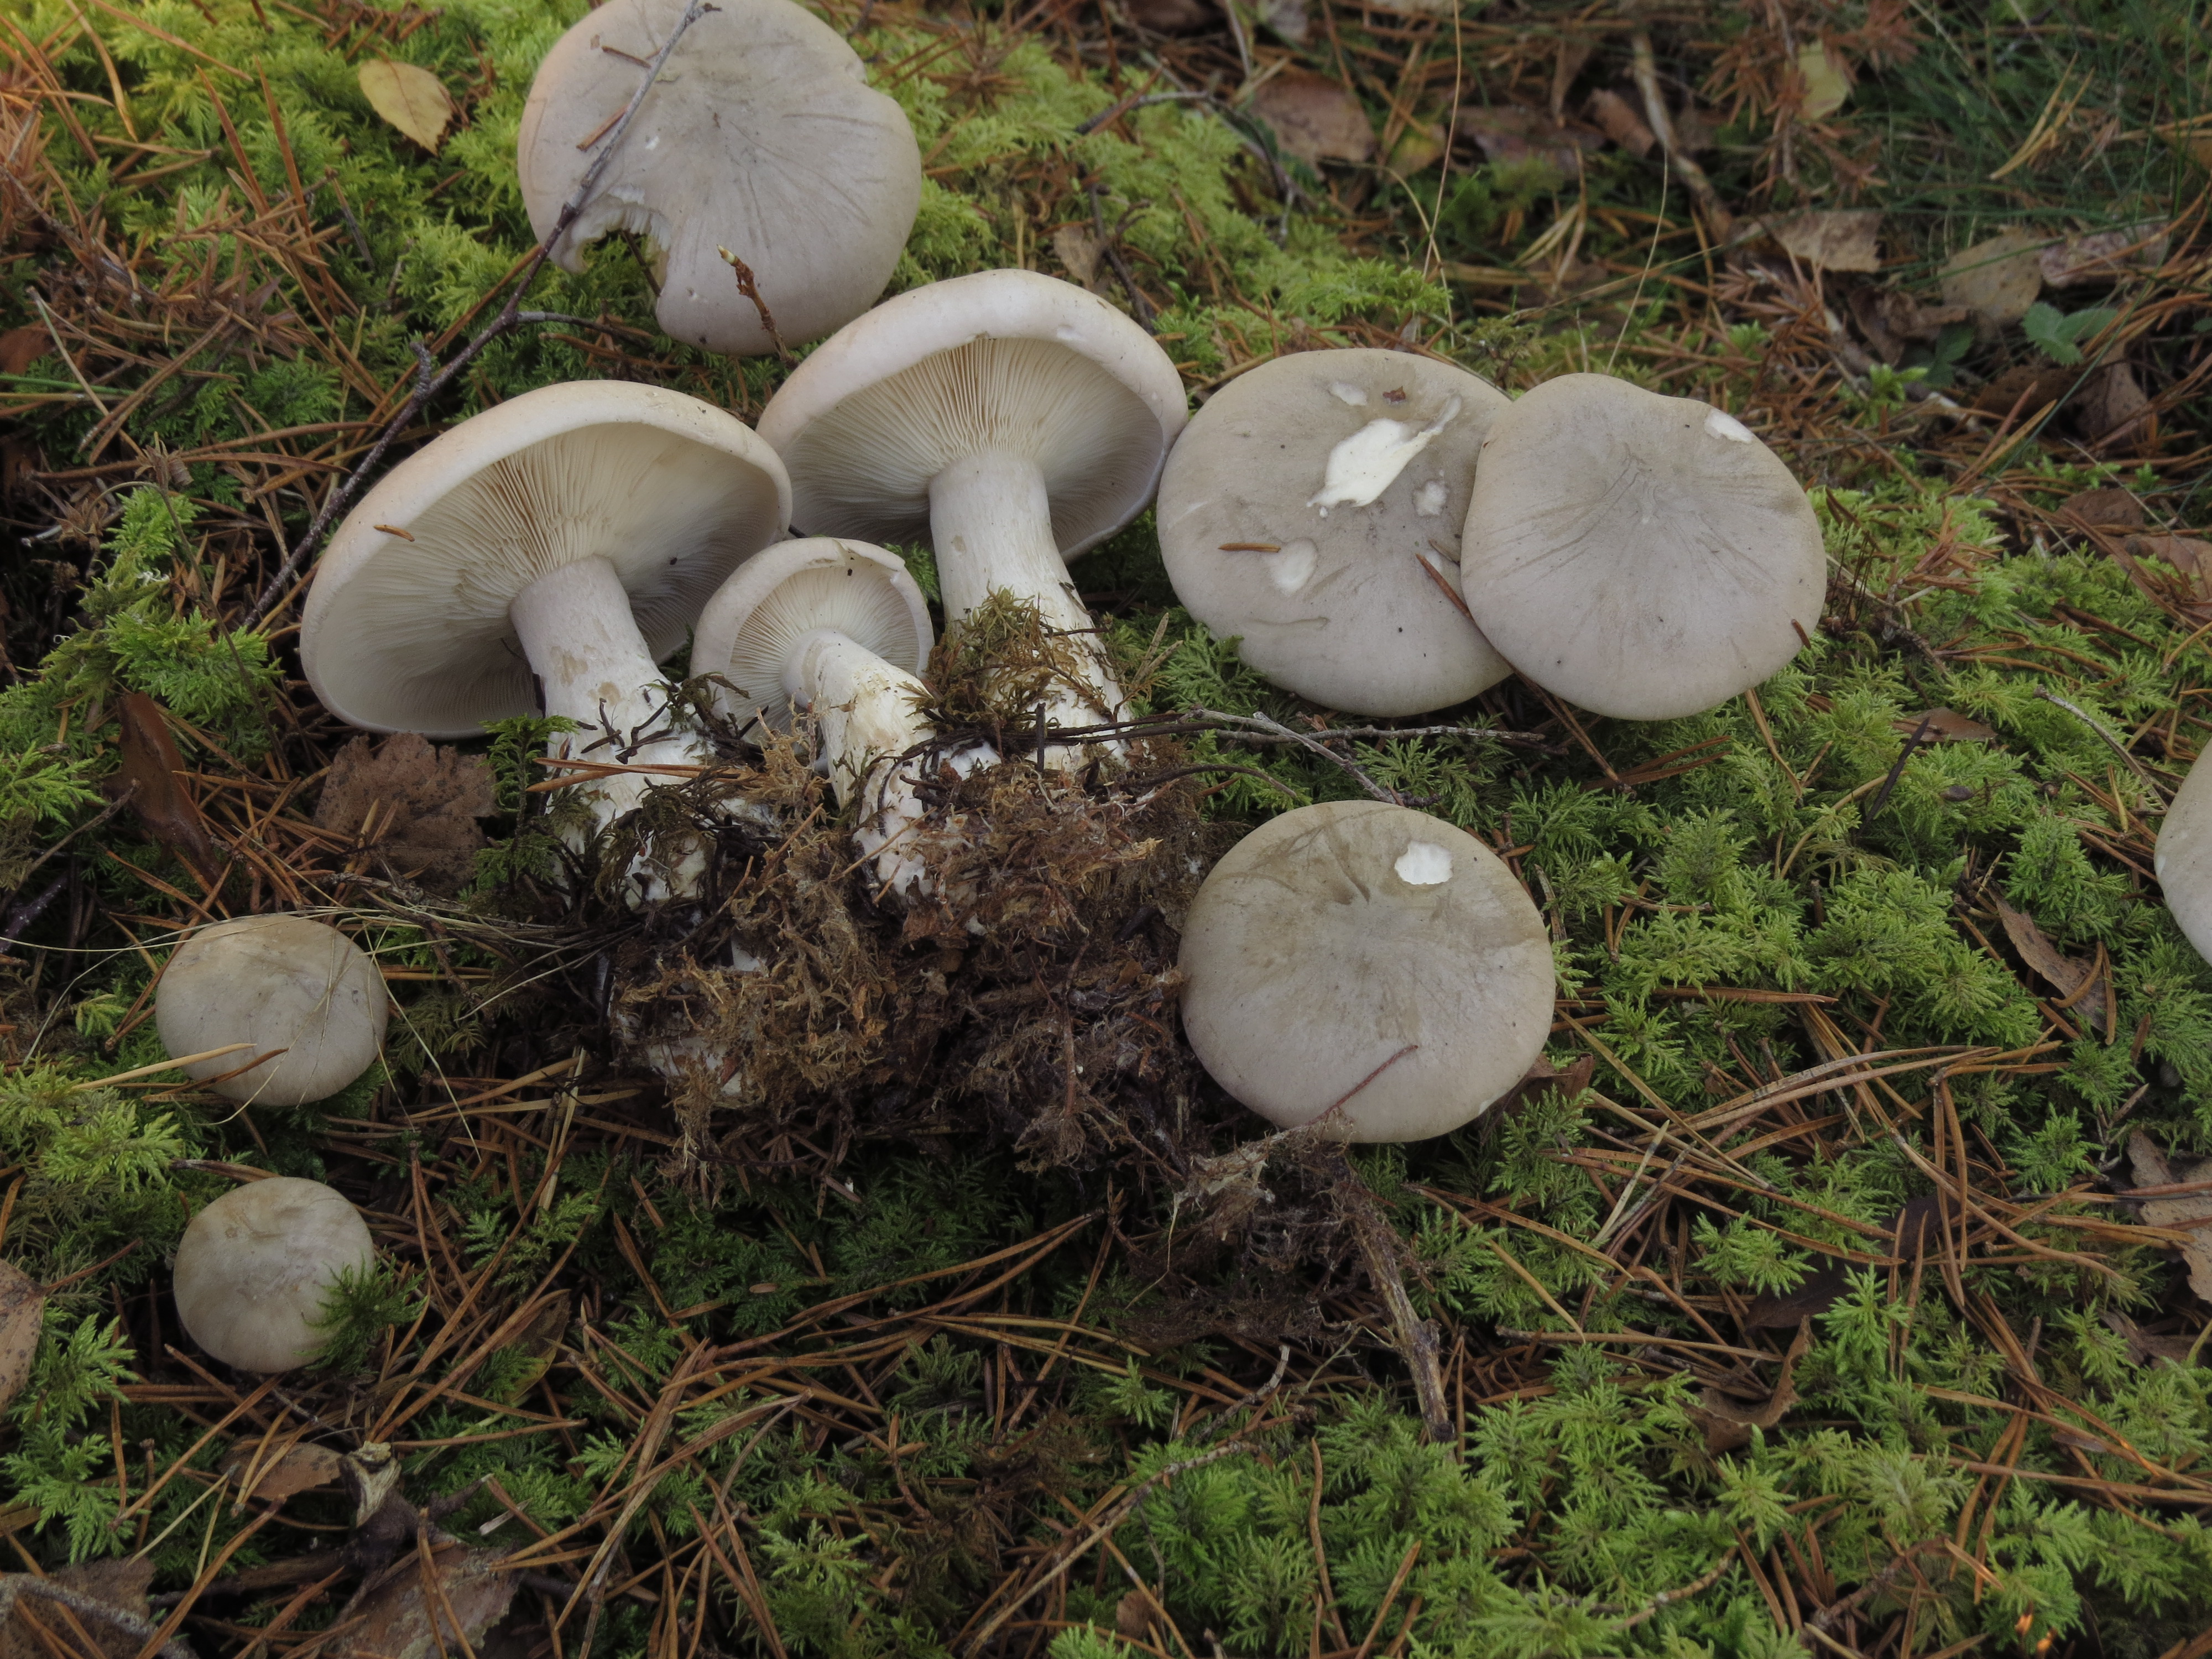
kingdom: Fungi
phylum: Basidiomycota
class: Agaricomycetes
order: Agaricales
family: Tricholomataceae
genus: Clitocybe
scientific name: Clitocybe nebularis
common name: Clouded agaric
